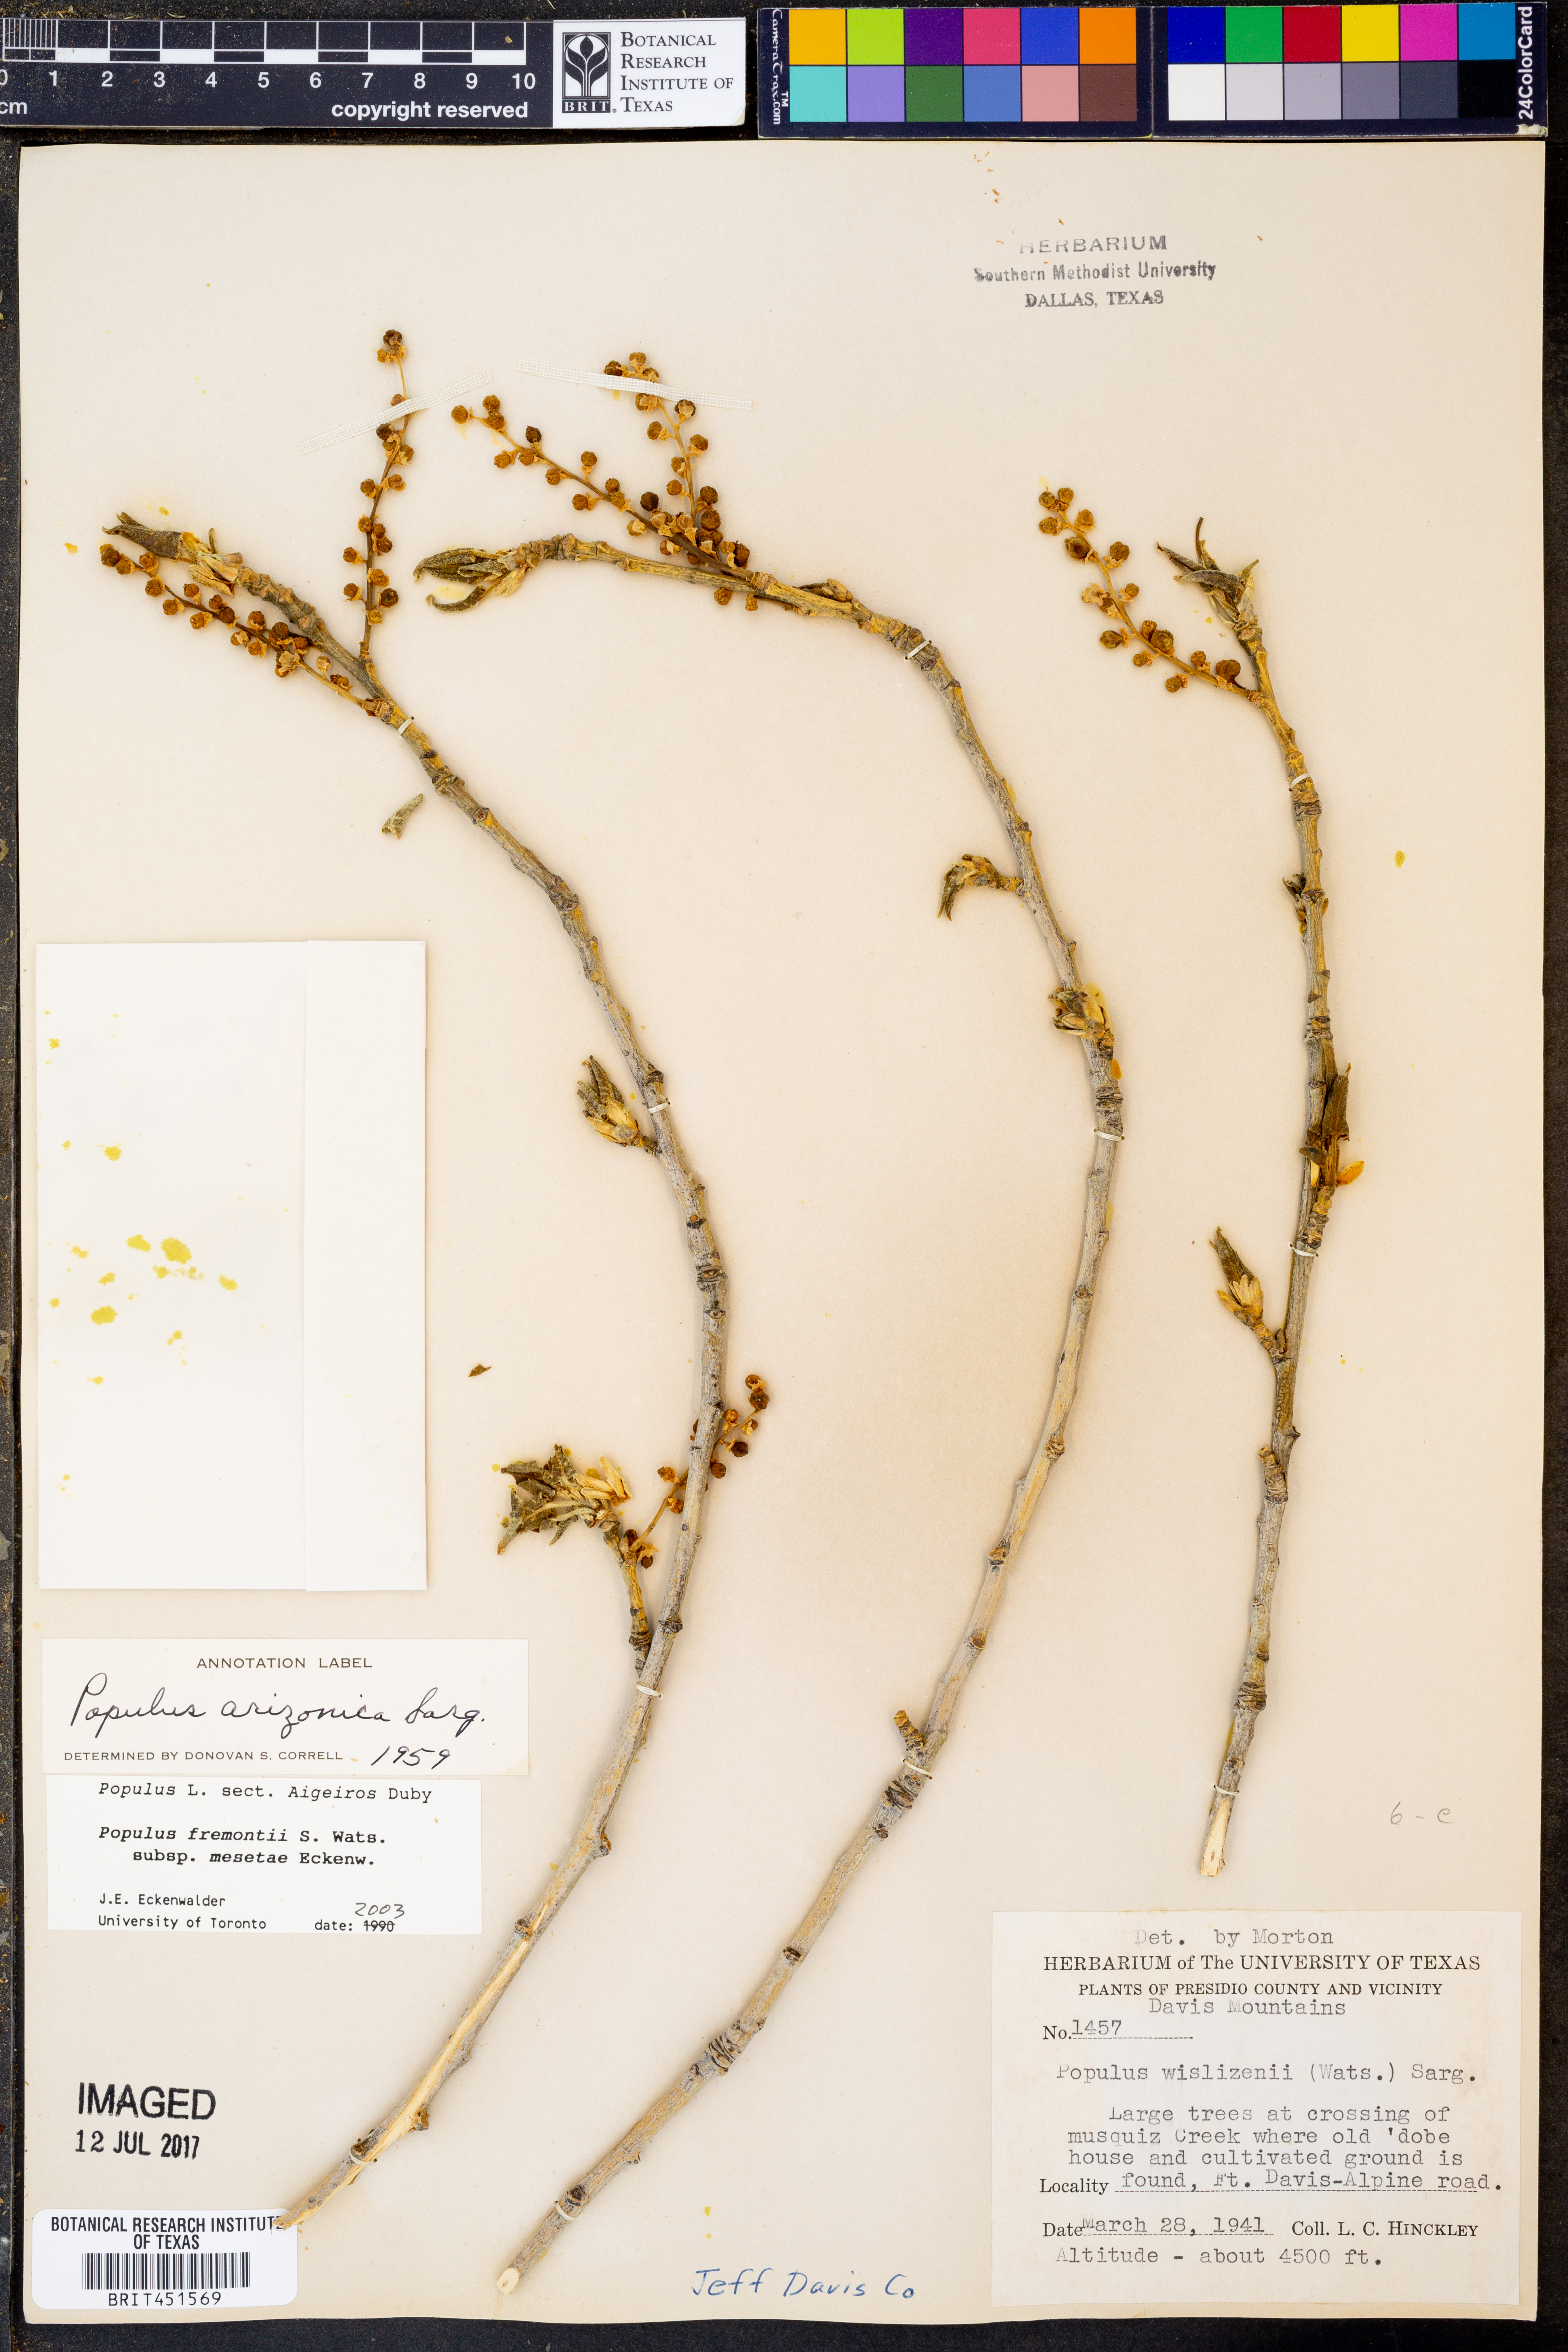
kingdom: Plantae
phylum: Tracheophyta
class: Magnoliopsida
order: Malpighiales
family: Salicaceae
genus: Populus
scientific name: Populus fremontii
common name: Fremont's cottonwood
